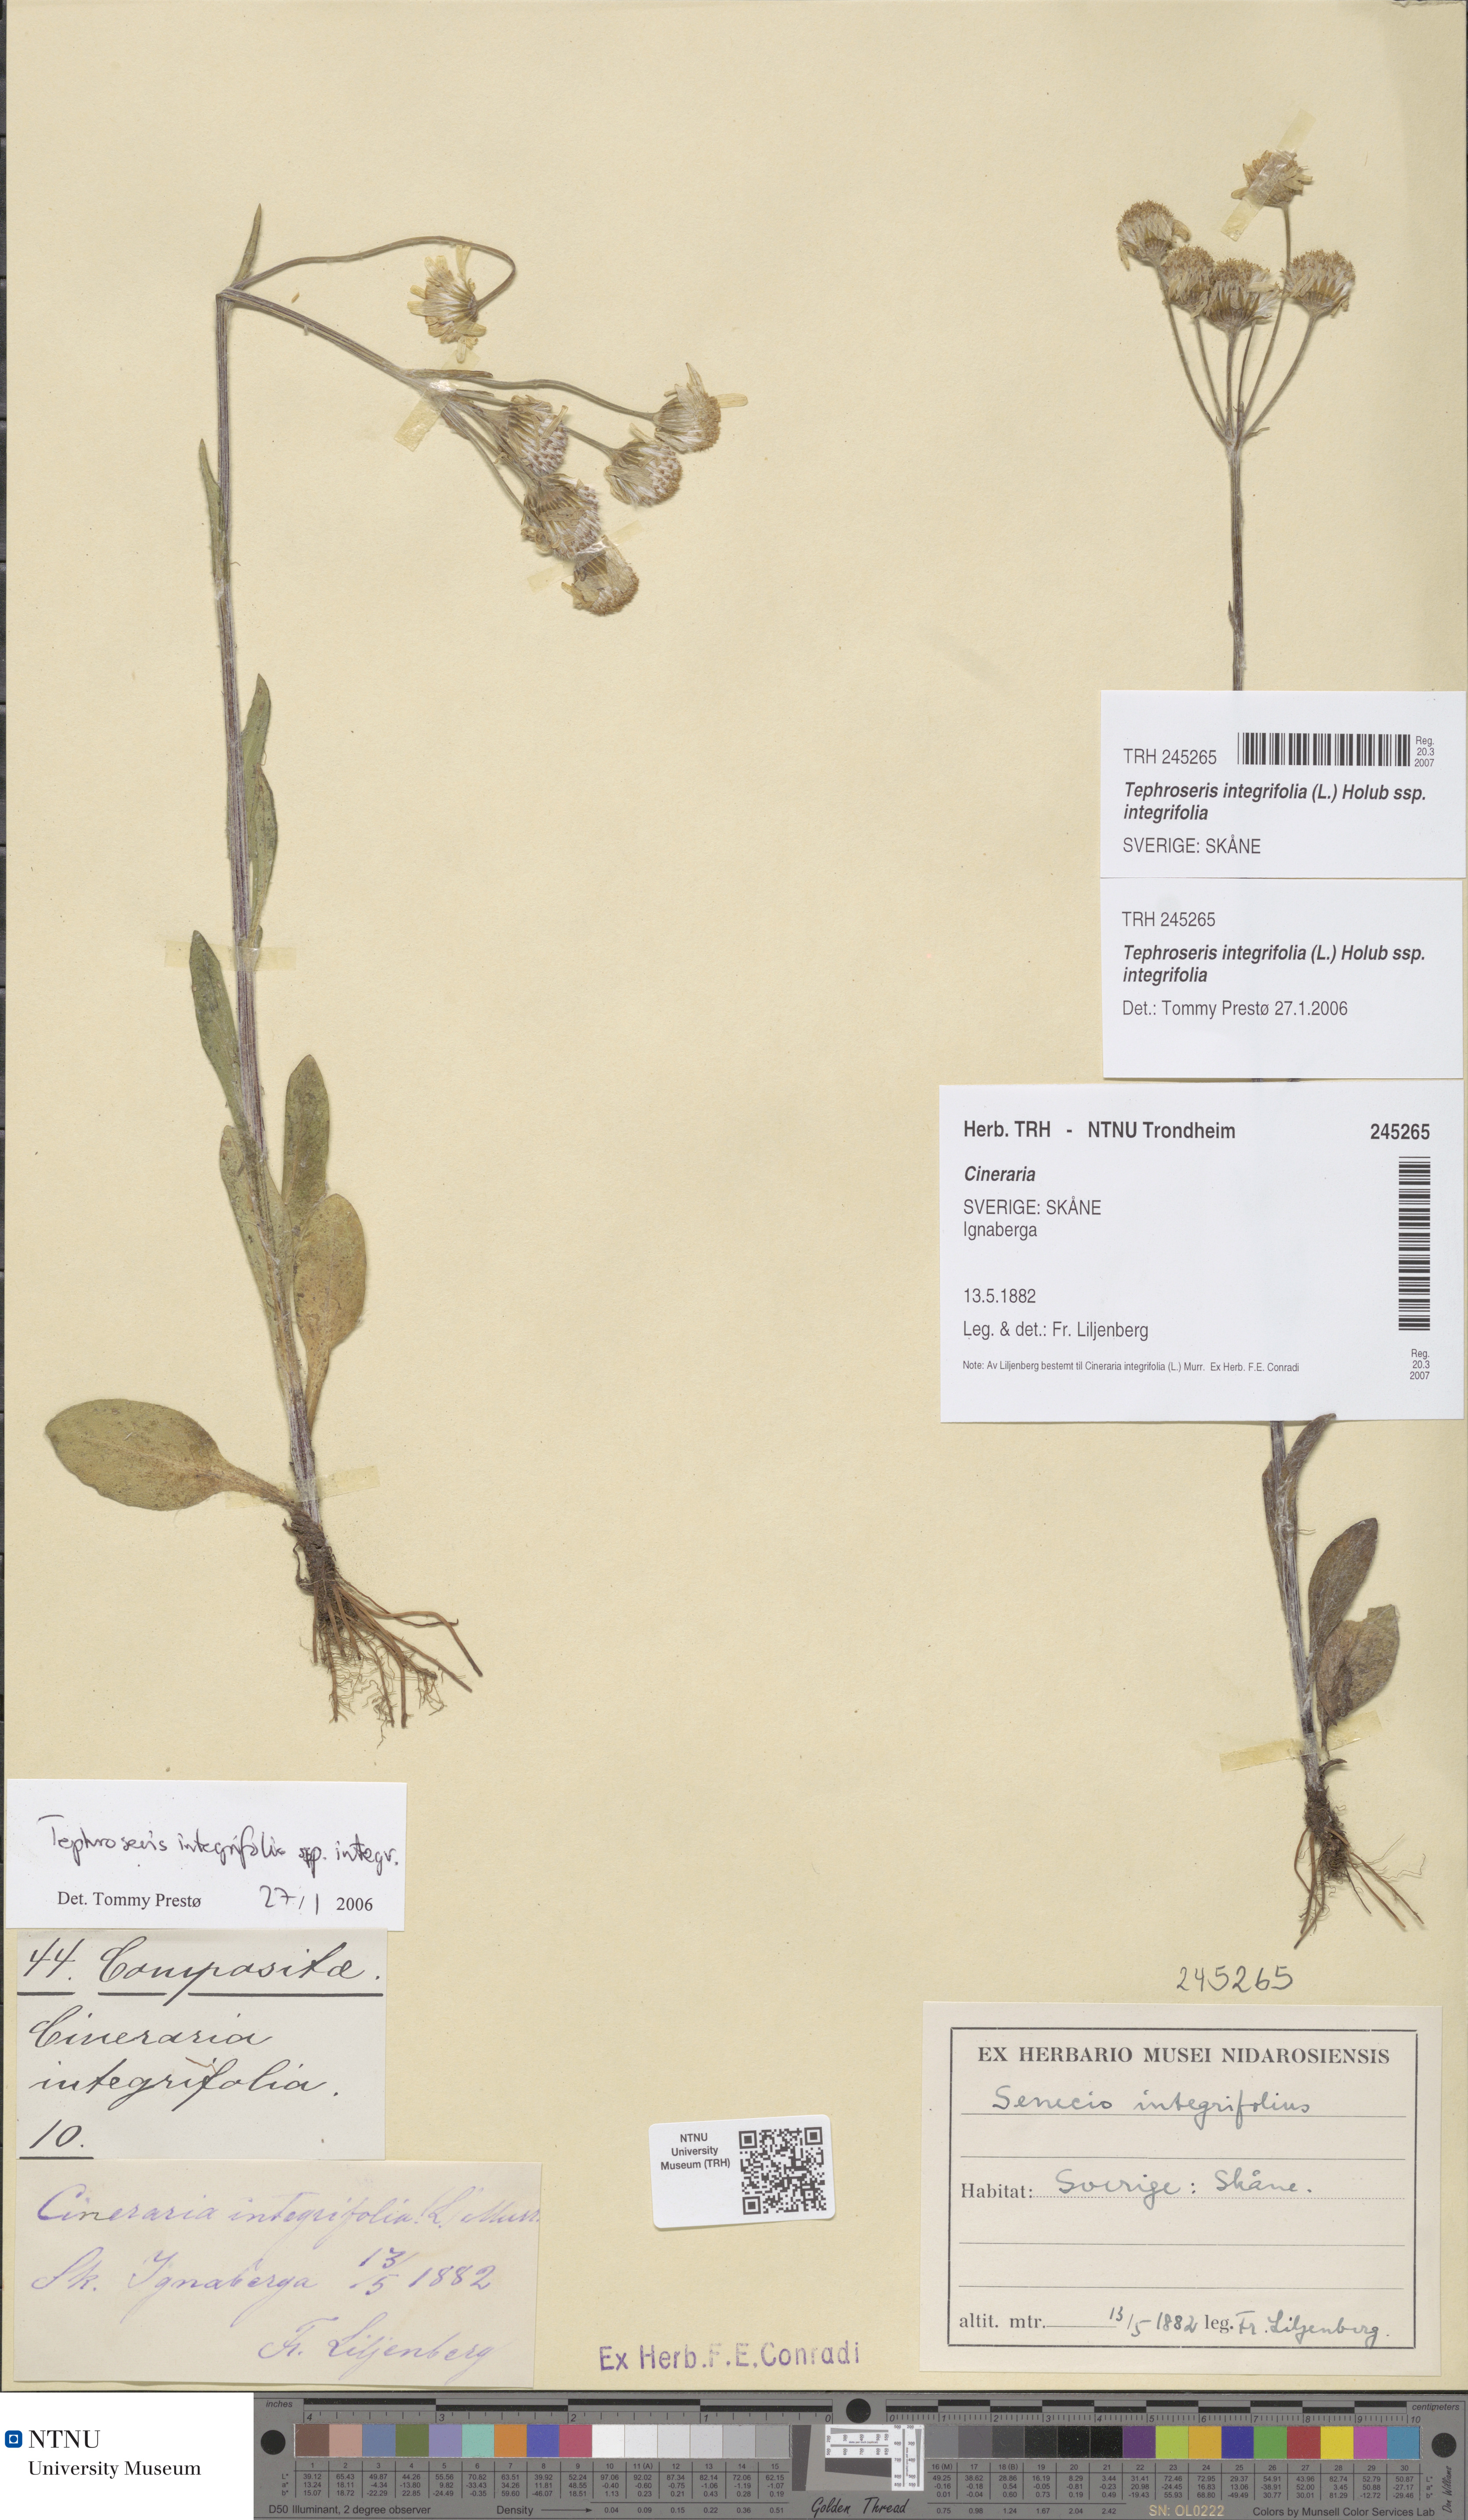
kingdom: Plantae
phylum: Tracheophyta
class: Magnoliopsida
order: Asterales
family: Asteraceae
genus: Tephroseris
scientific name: Tephroseris integrifolia
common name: Field fleawort
